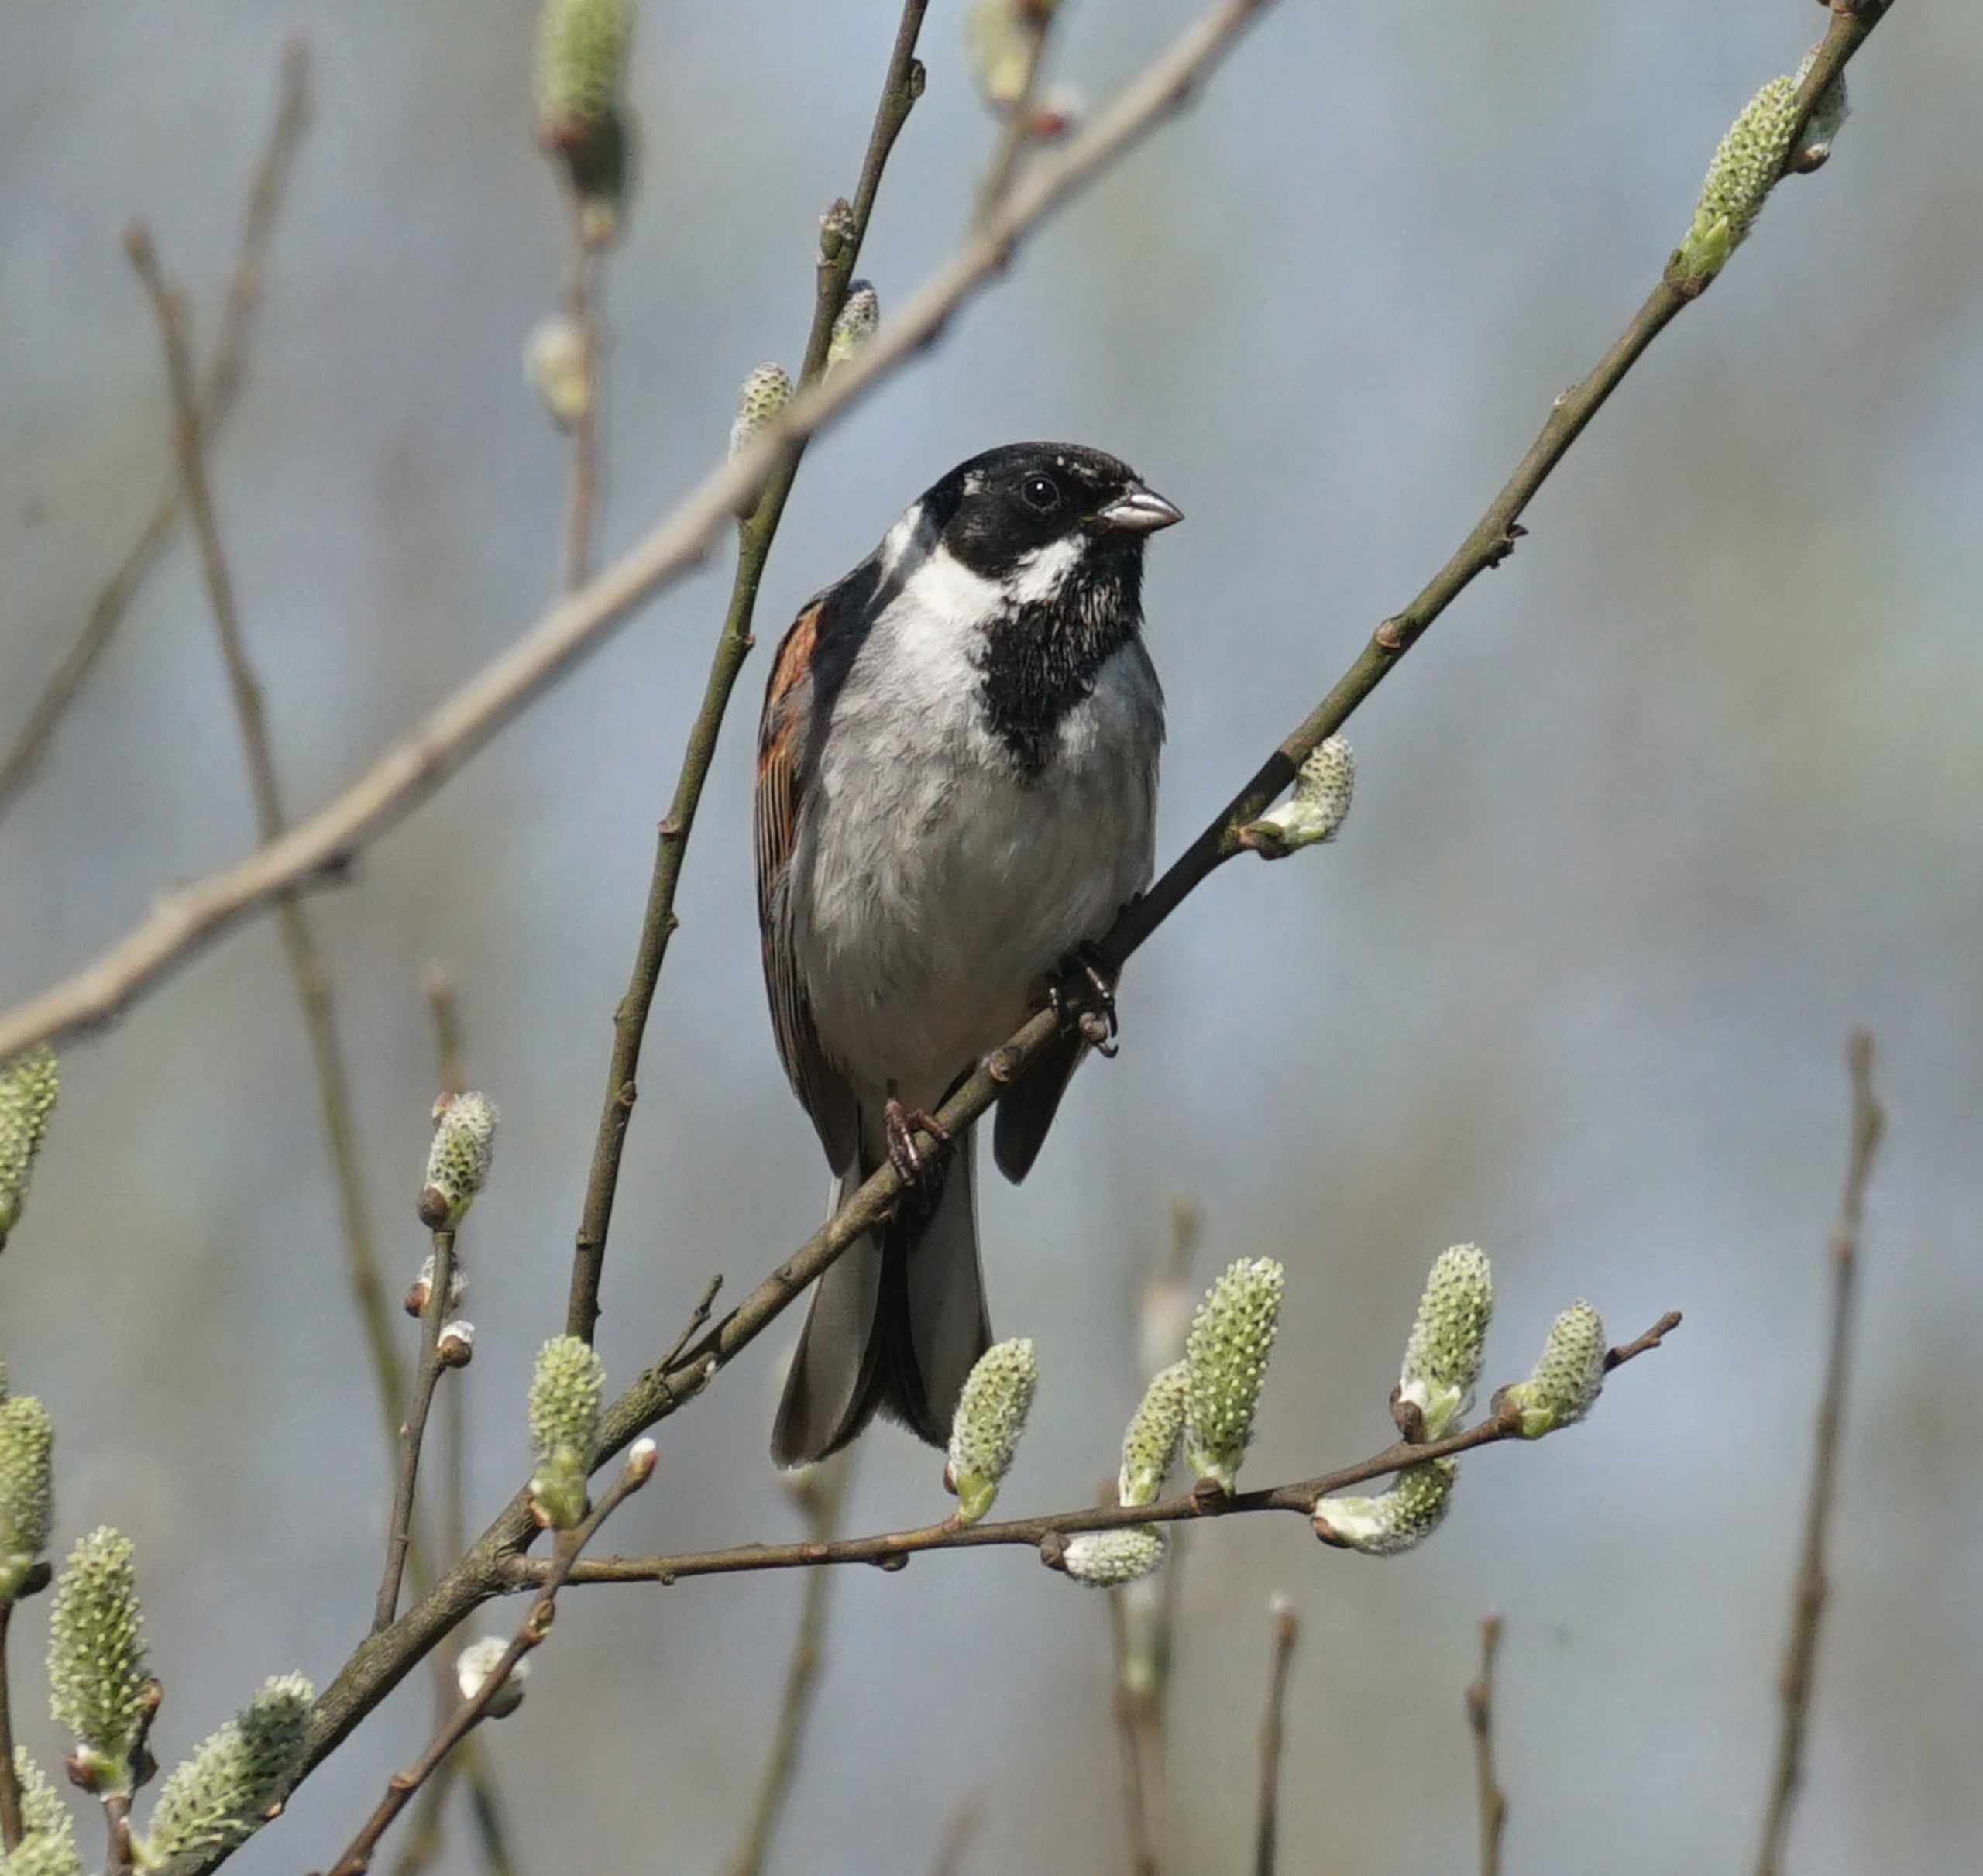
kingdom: Animalia
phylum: Chordata
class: Aves
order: Passeriformes
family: Emberizidae
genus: Emberiza
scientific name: Emberiza schoeniclus
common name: Rørspurv
